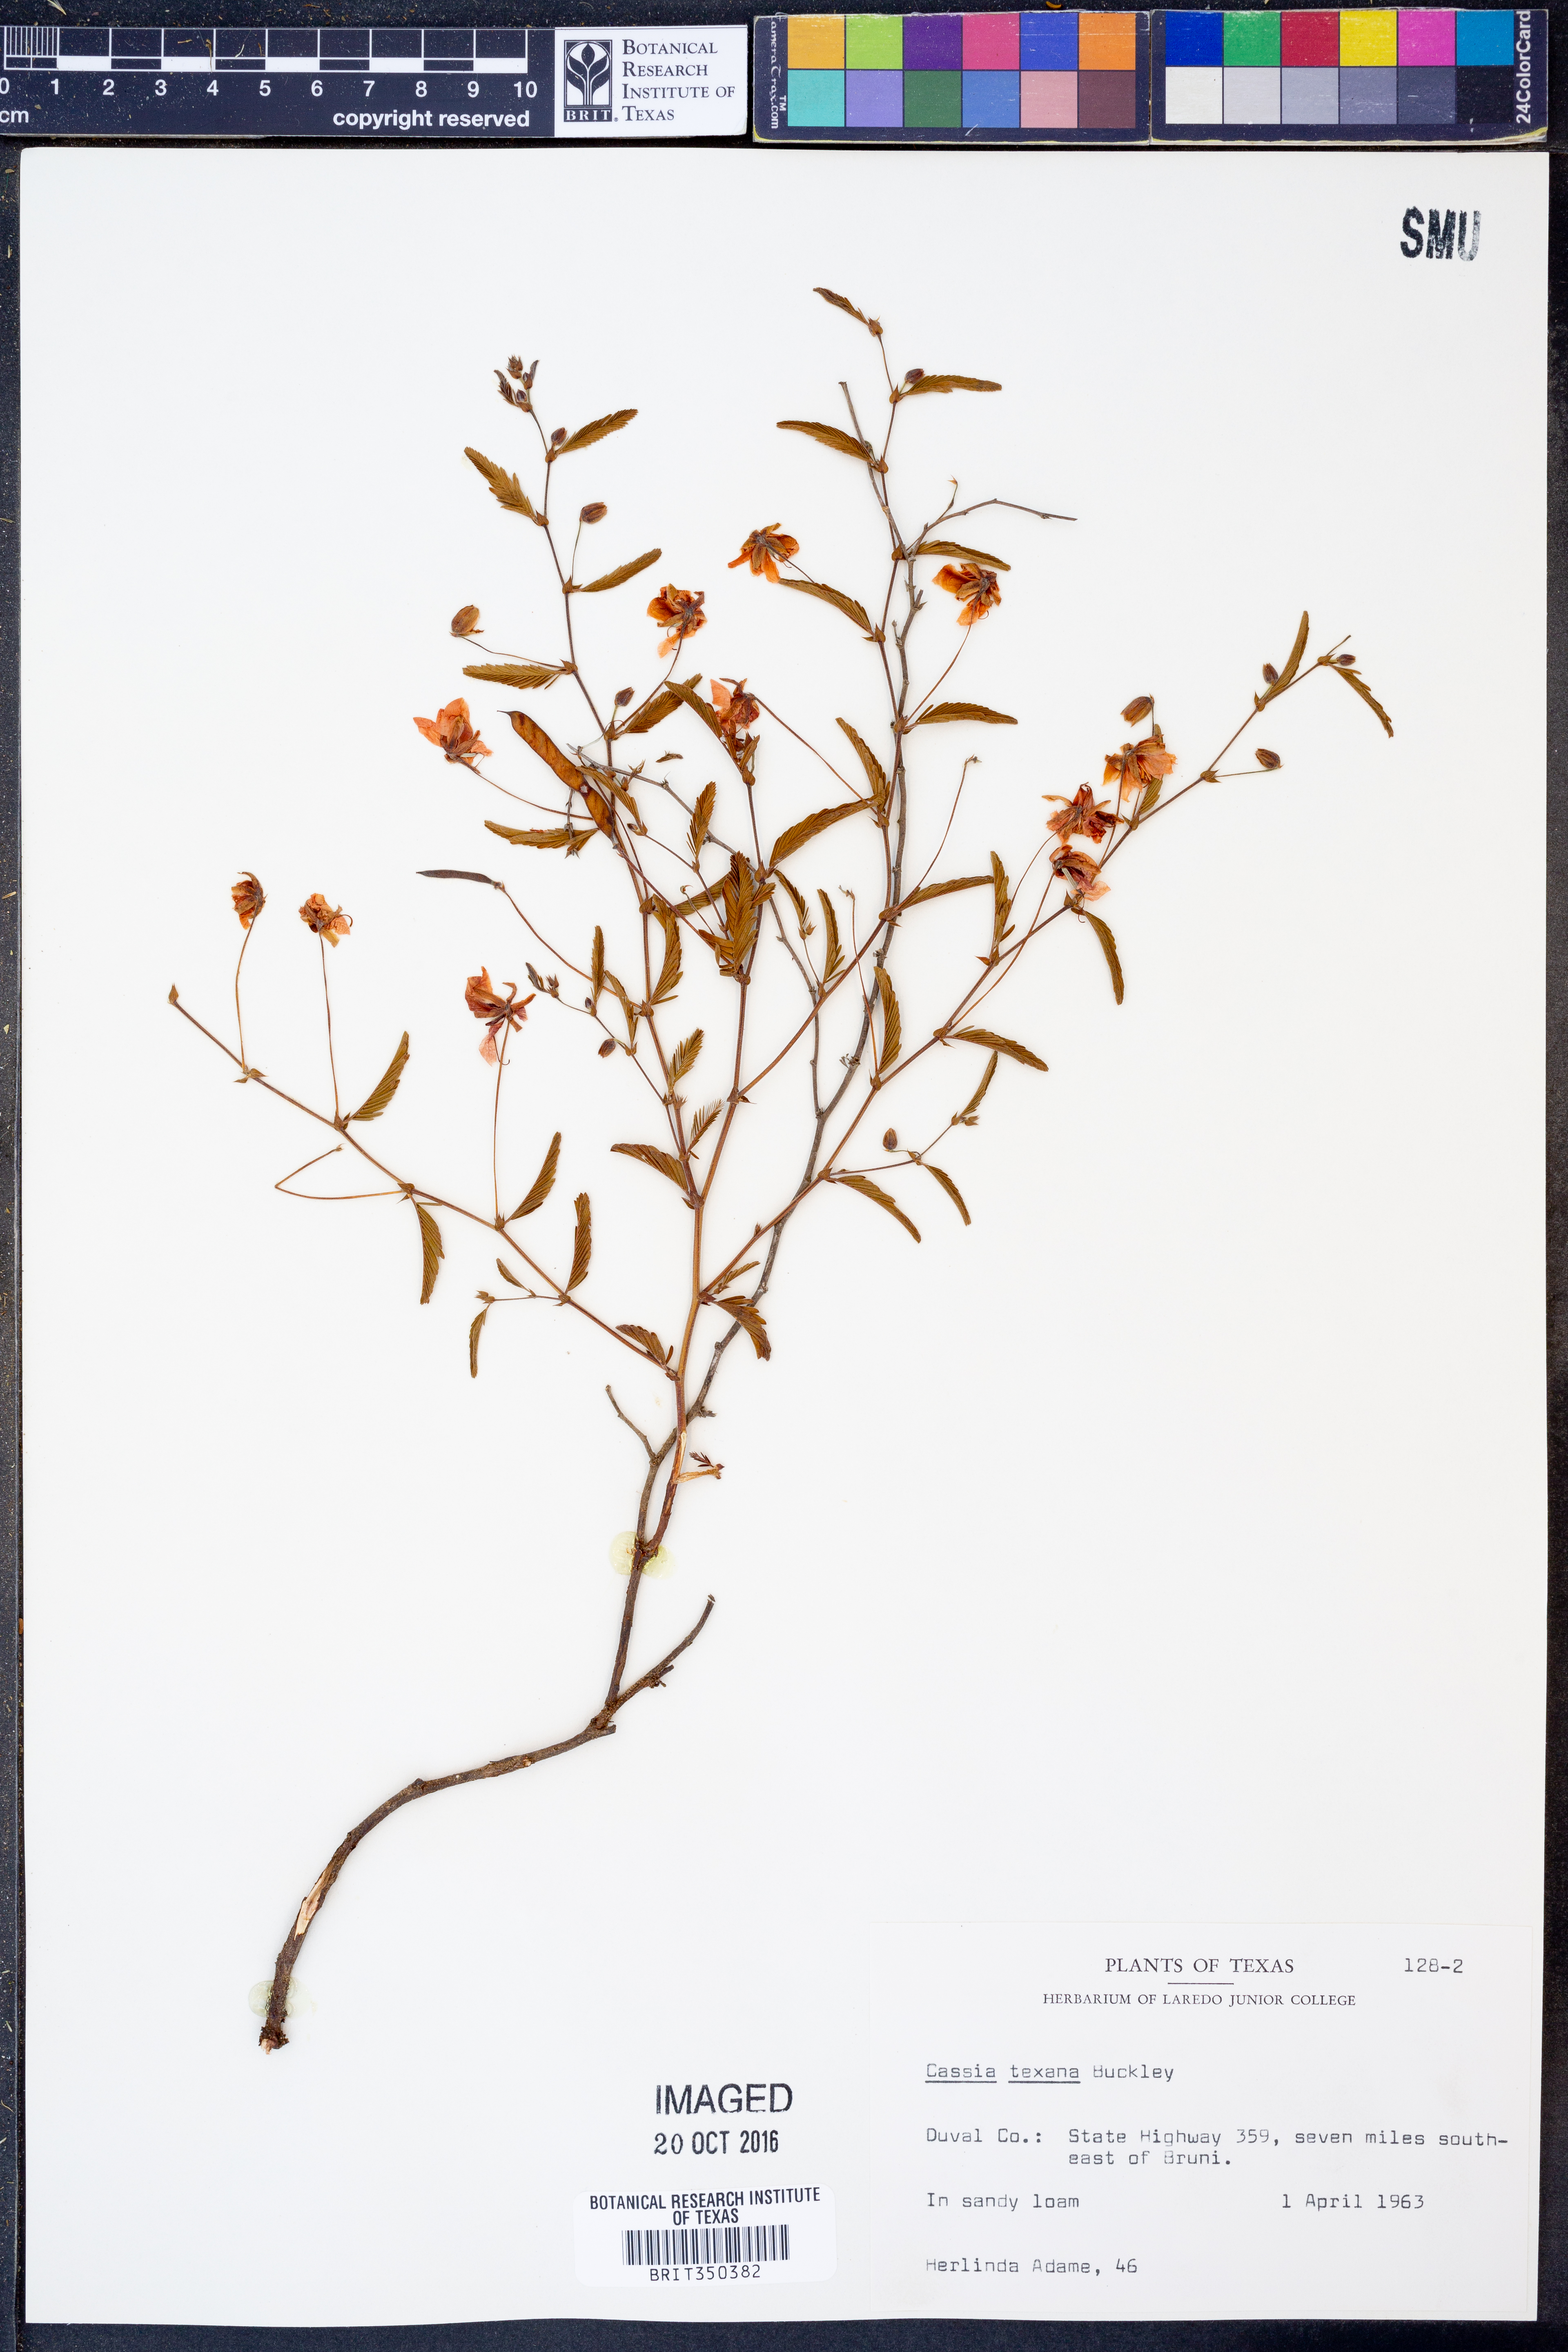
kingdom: Plantae
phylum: Tracheophyta
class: Magnoliopsida
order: Fabales
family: Fabaceae
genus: Chamaecrista
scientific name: Chamaecrista flexuosa
